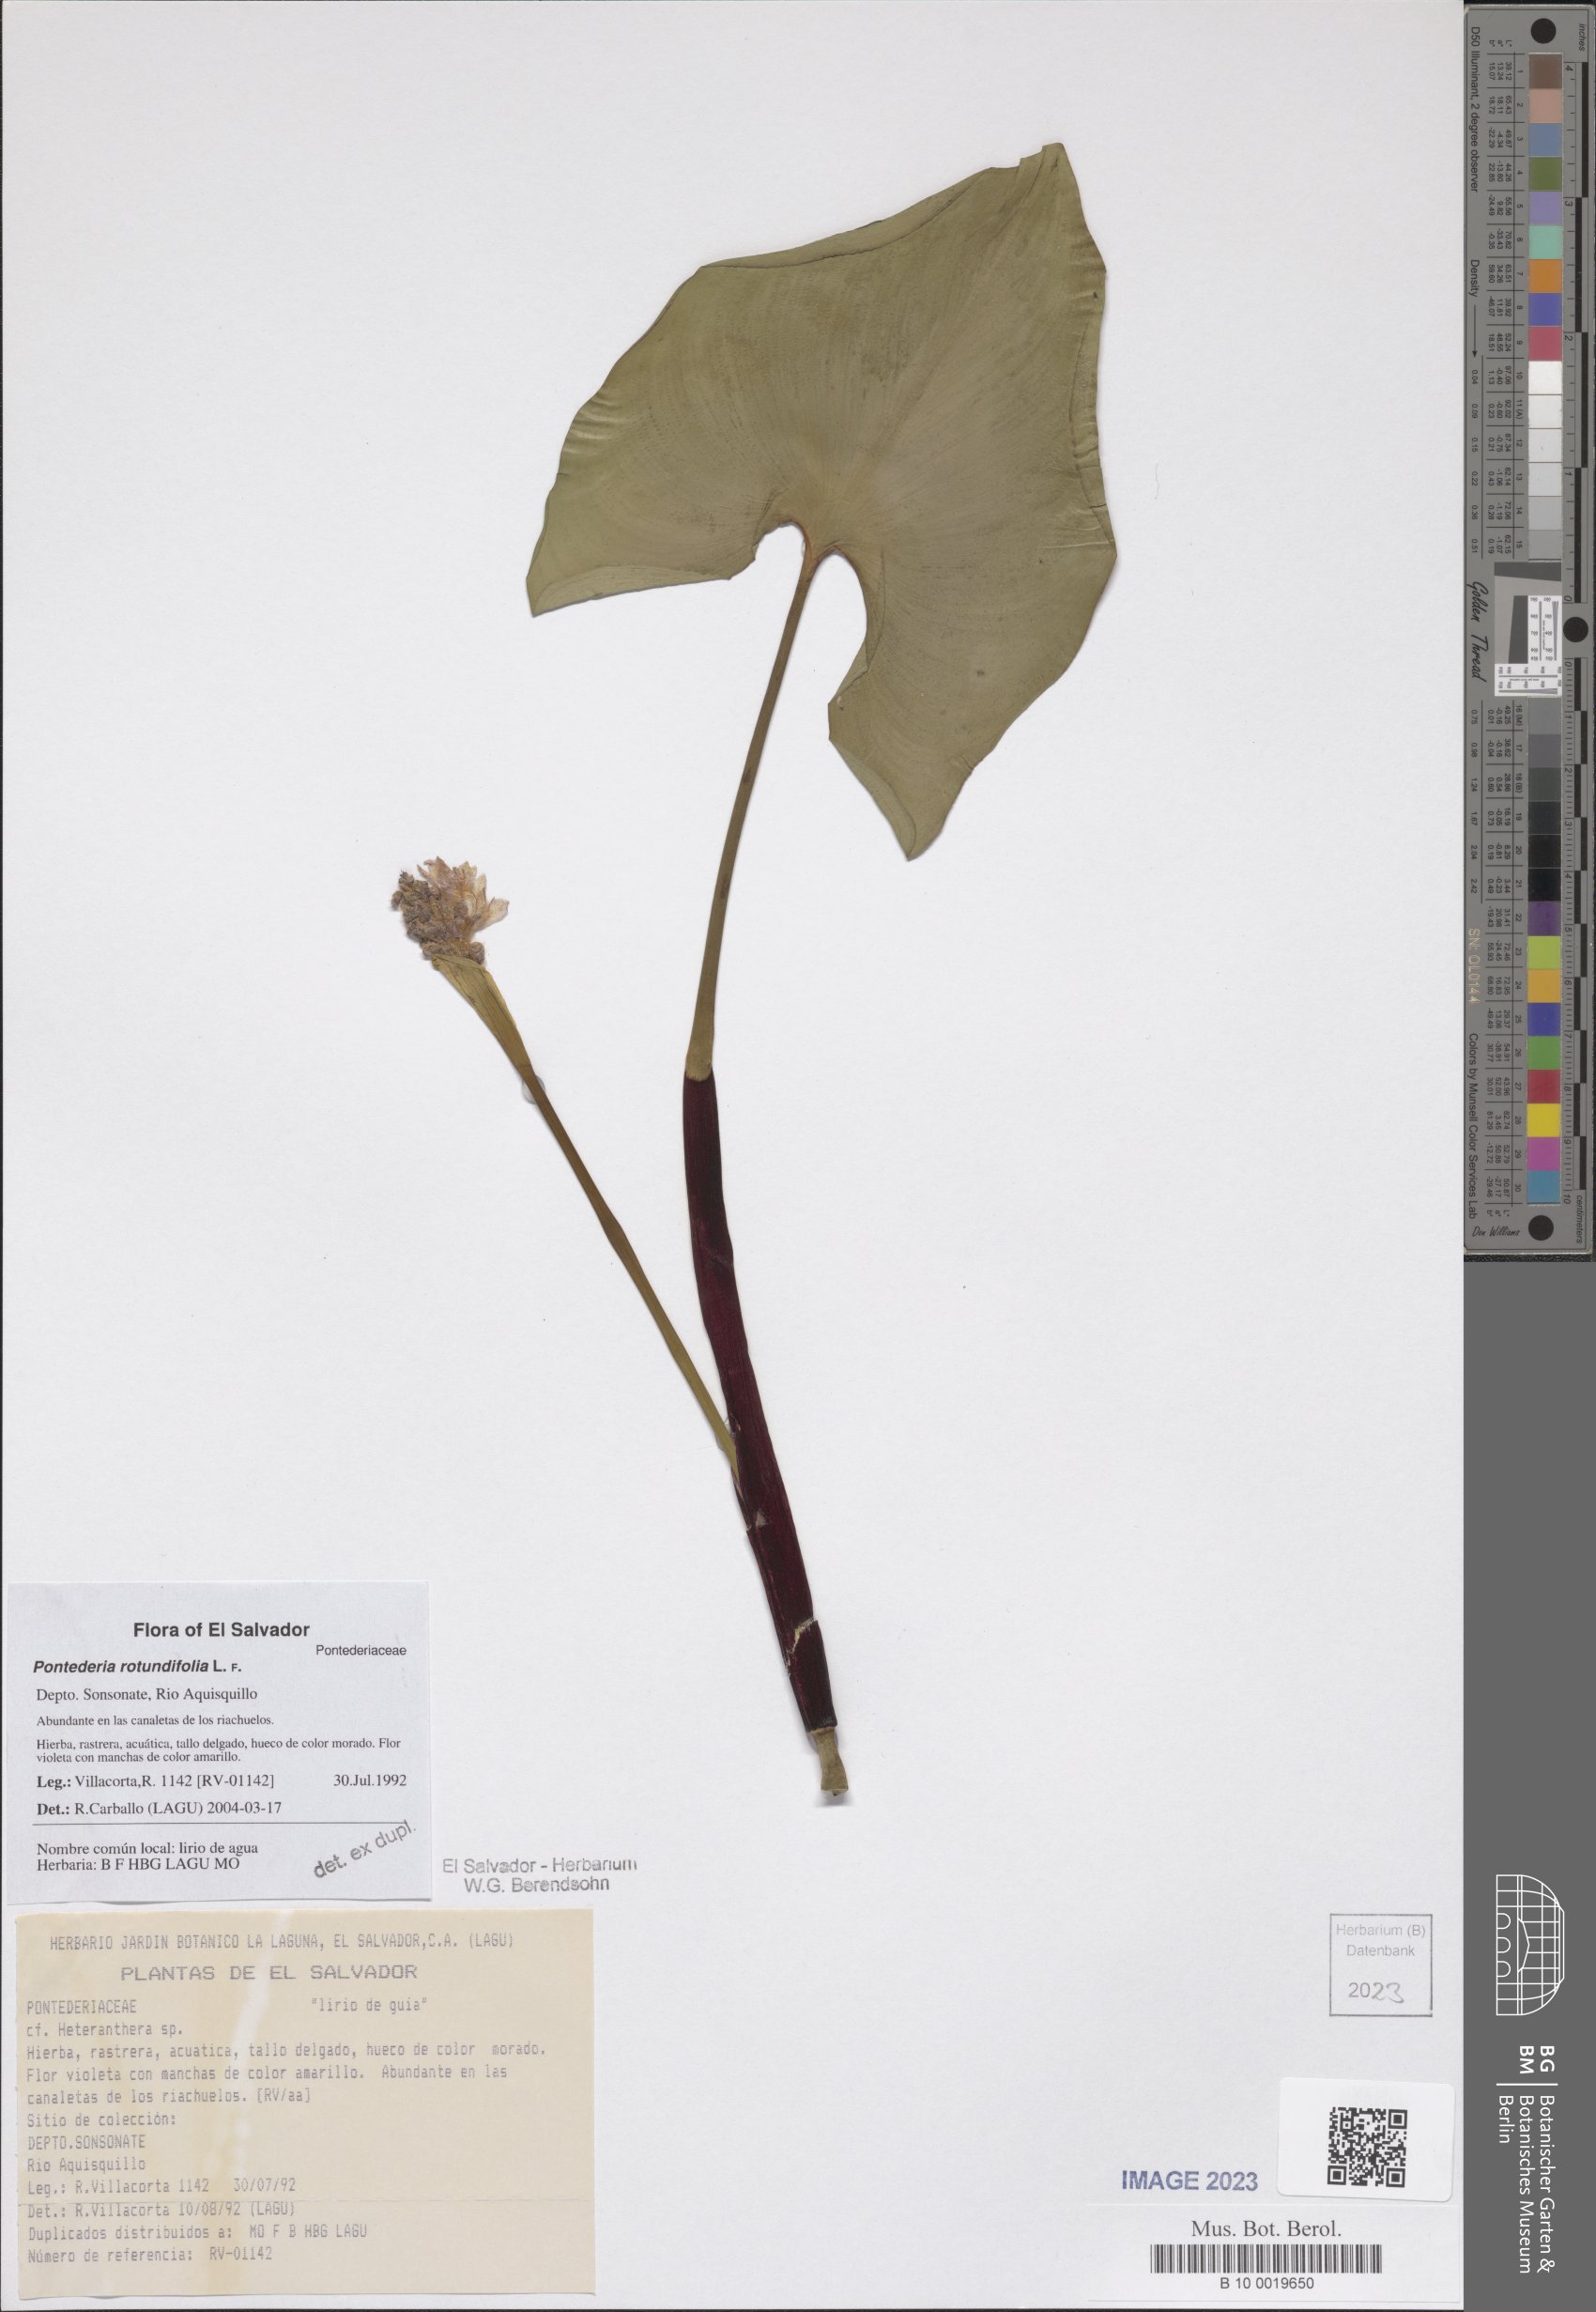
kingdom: Plantae
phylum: Tracheophyta
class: Liliopsida
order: Commelinales
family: Pontederiaceae
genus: Pontederia
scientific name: Pontederia rotundifolia
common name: Tropical pickerel-weed
